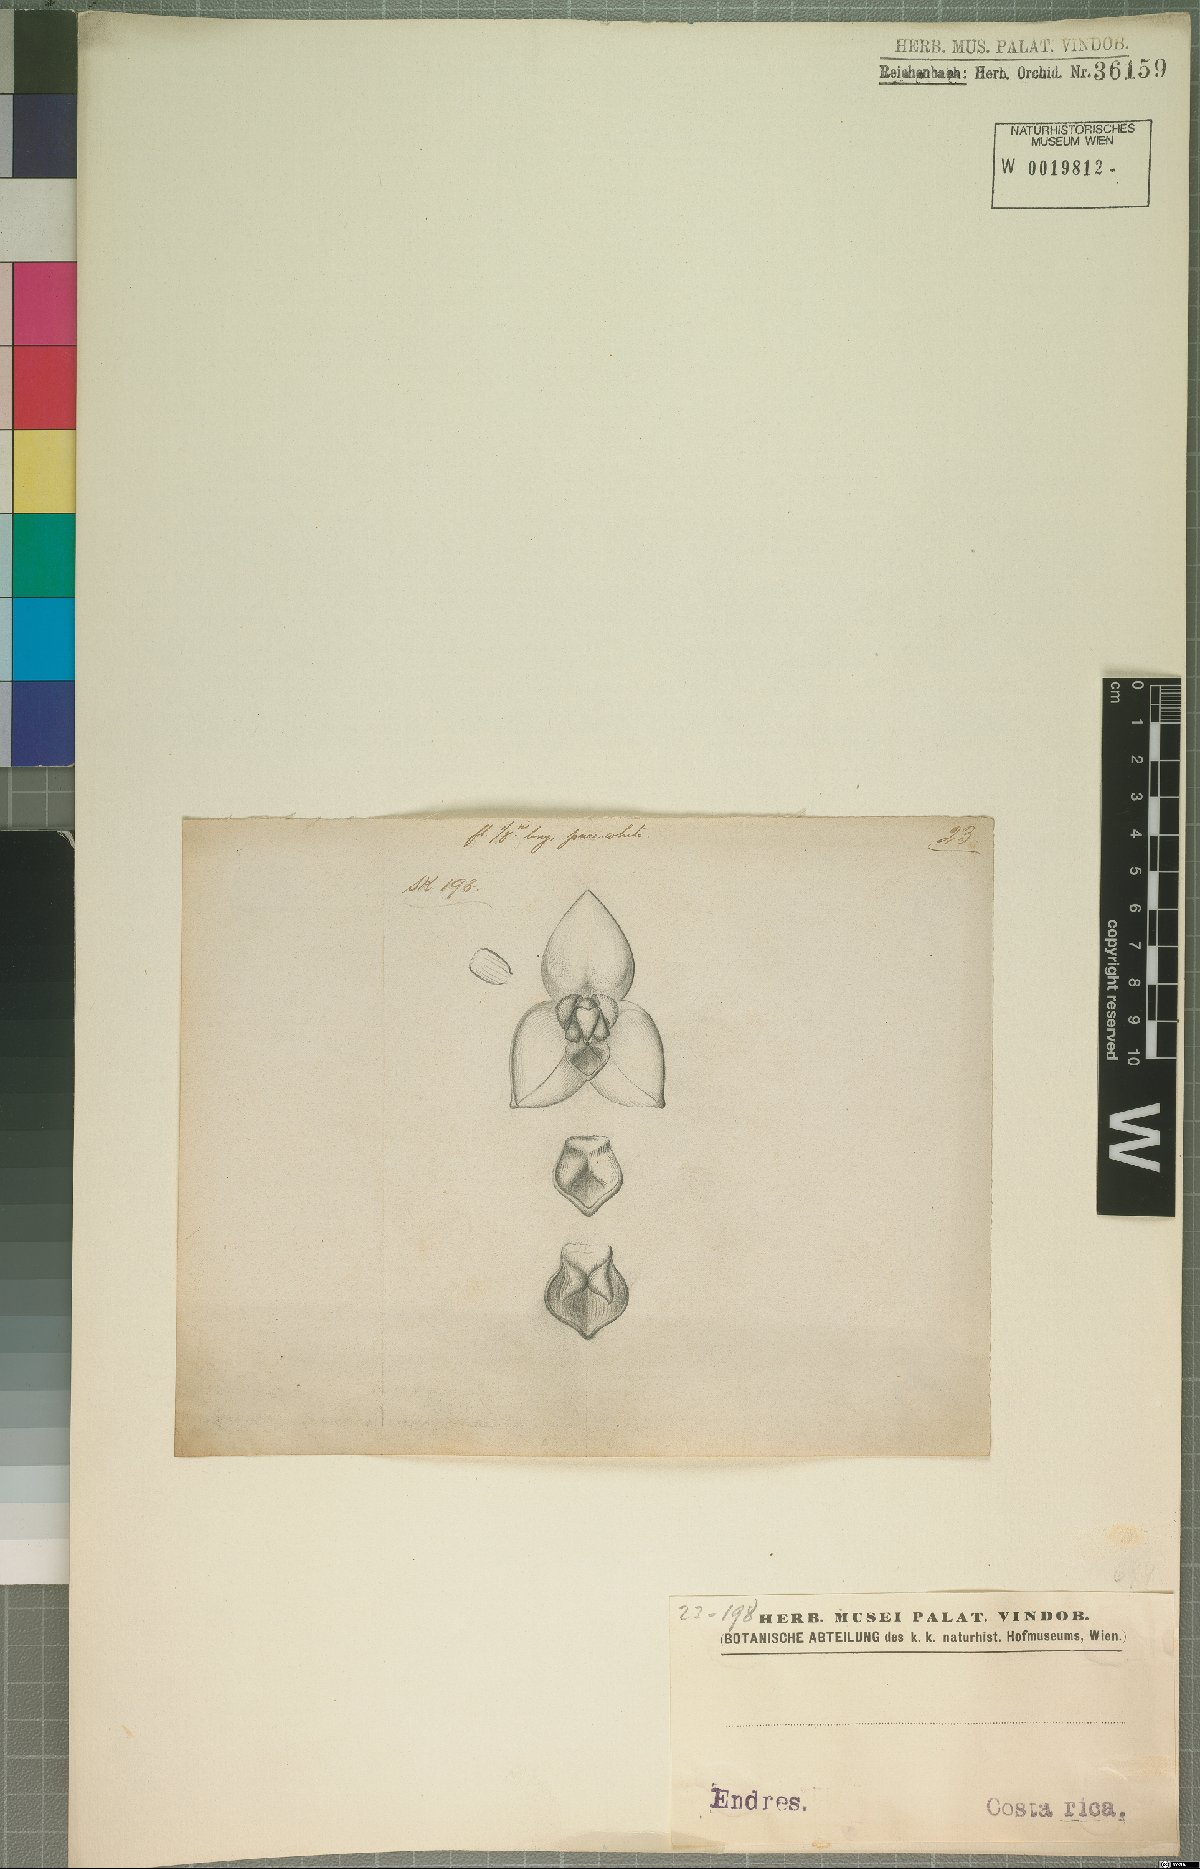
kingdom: Plantae
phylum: Tracheophyta
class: Liliopsida
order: Asparagales
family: Orchidaceae
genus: Stelis
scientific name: Stelis
